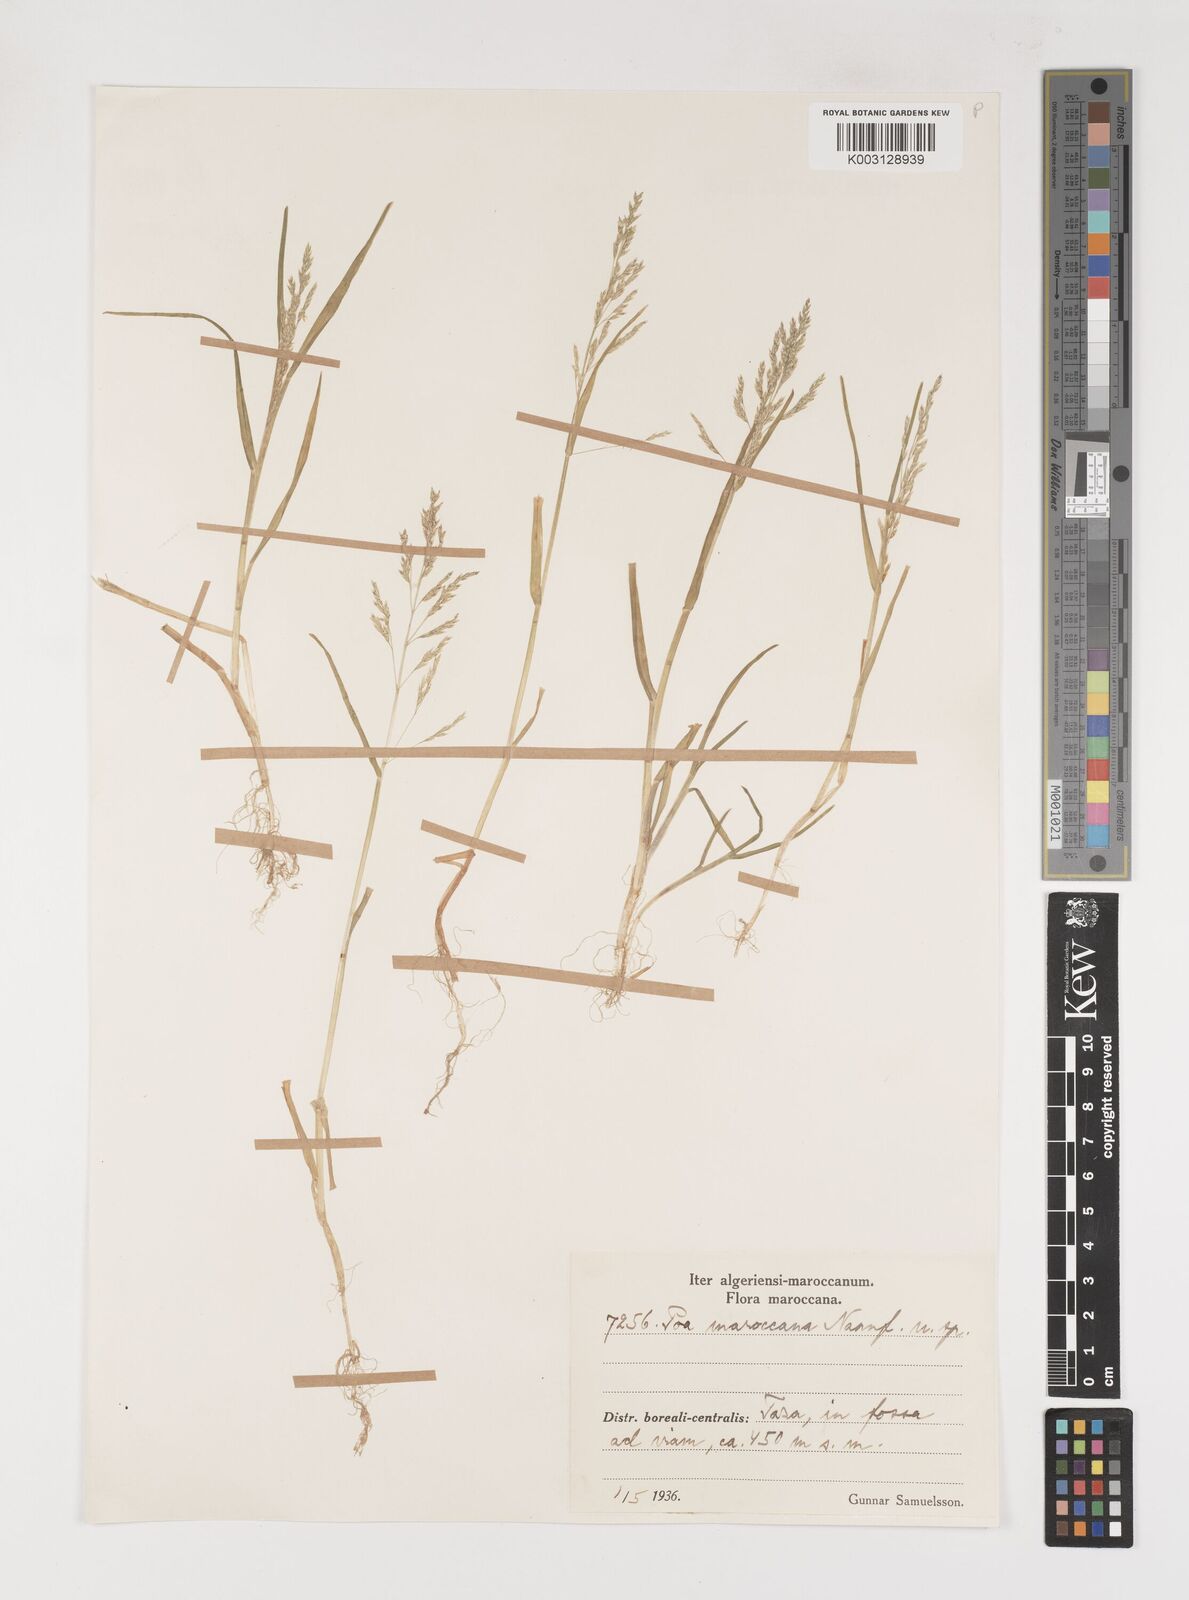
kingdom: Plantae
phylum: Tracheophyta
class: Liliopsida
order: Poales
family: Poaceae
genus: Poa
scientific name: Poa infirma
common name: Weak bluegrass
